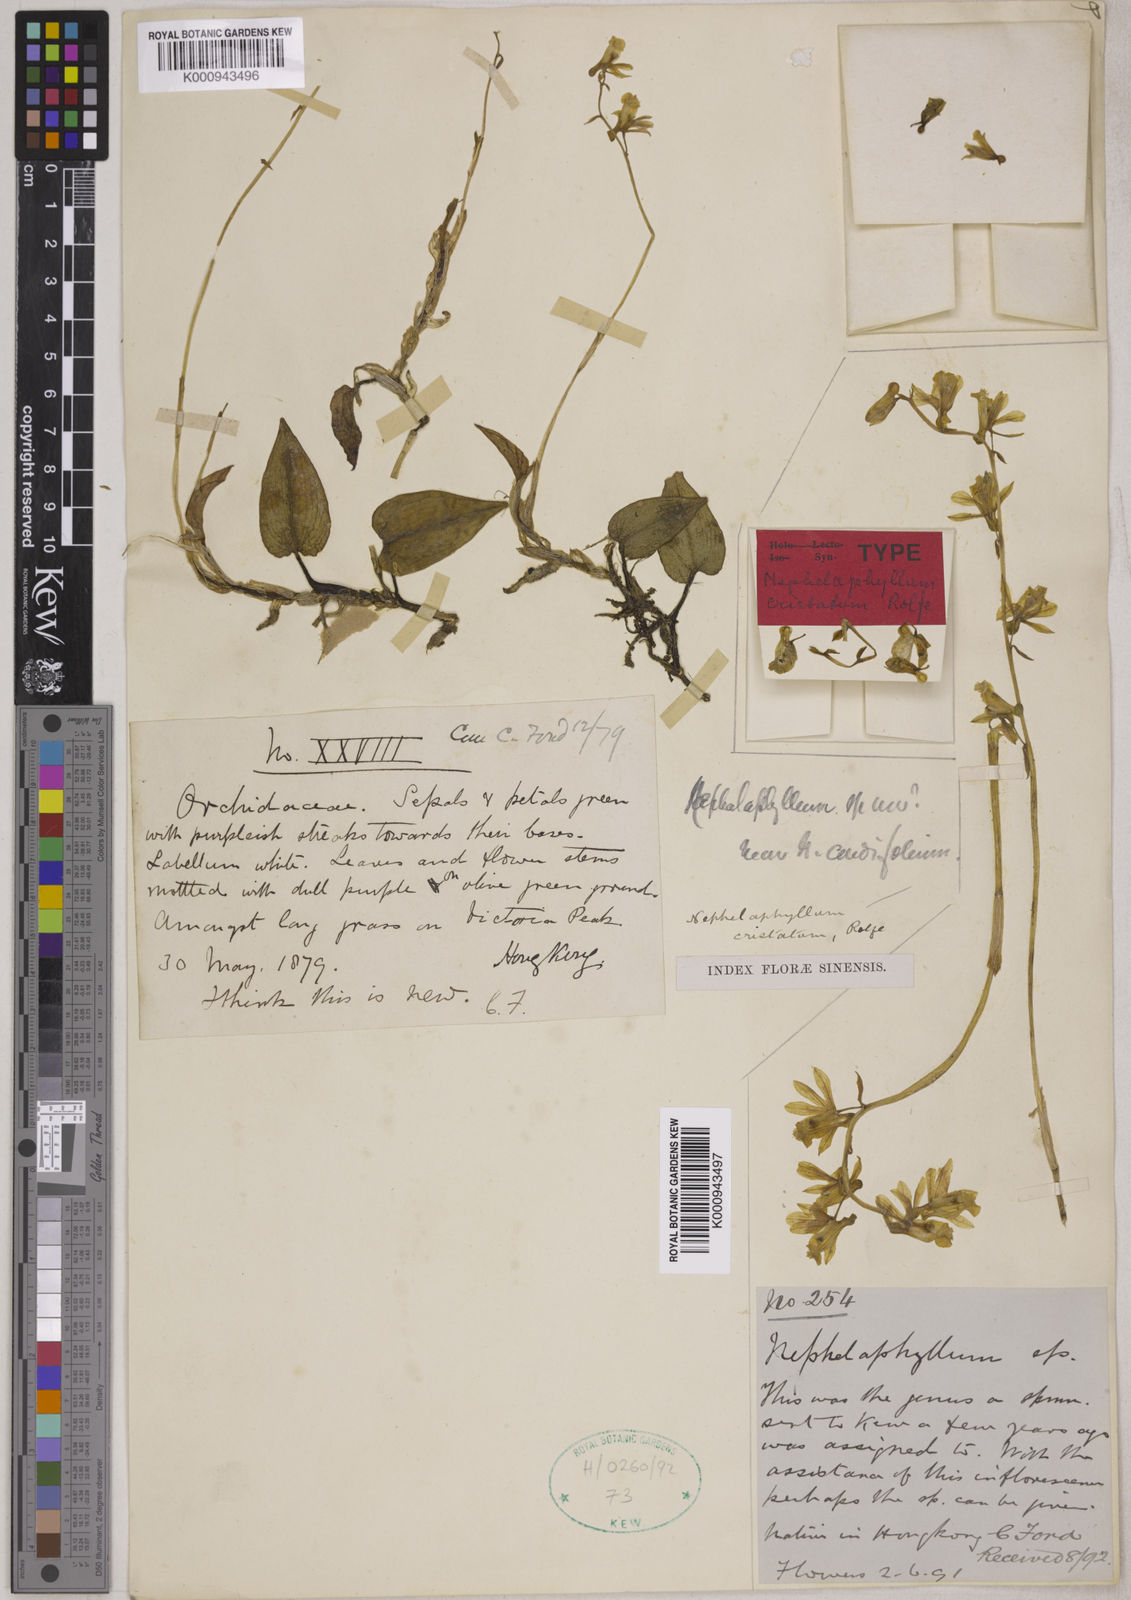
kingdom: Plantae
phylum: Tracheophyta
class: Liliopsida
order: Asparagales
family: Orchidaceae
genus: Nephelaphyllum
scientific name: Nephelaphyllum tenuiflorum
